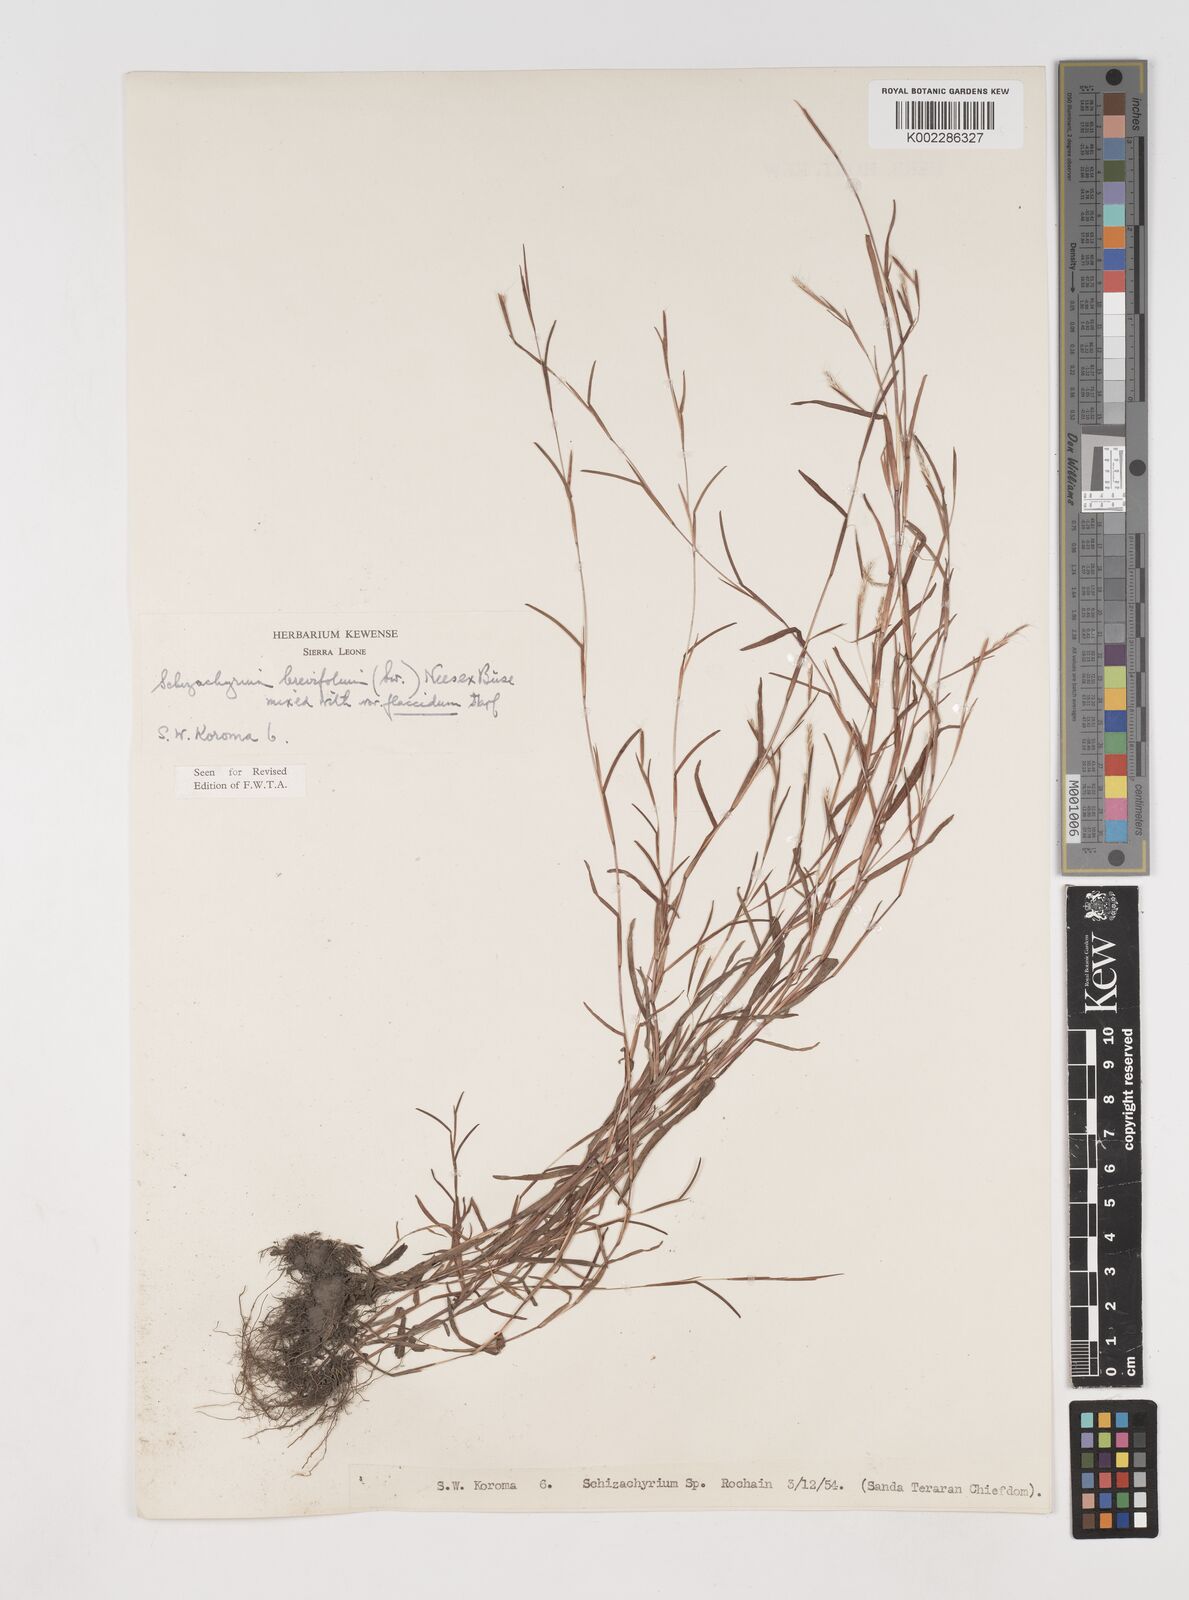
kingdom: Plantae
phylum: Tracheophyta
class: Liliopsida
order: Poales
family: Poaceae
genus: Schizachyrium
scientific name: Schizachyrium brevifolium
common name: Serillo dulce
